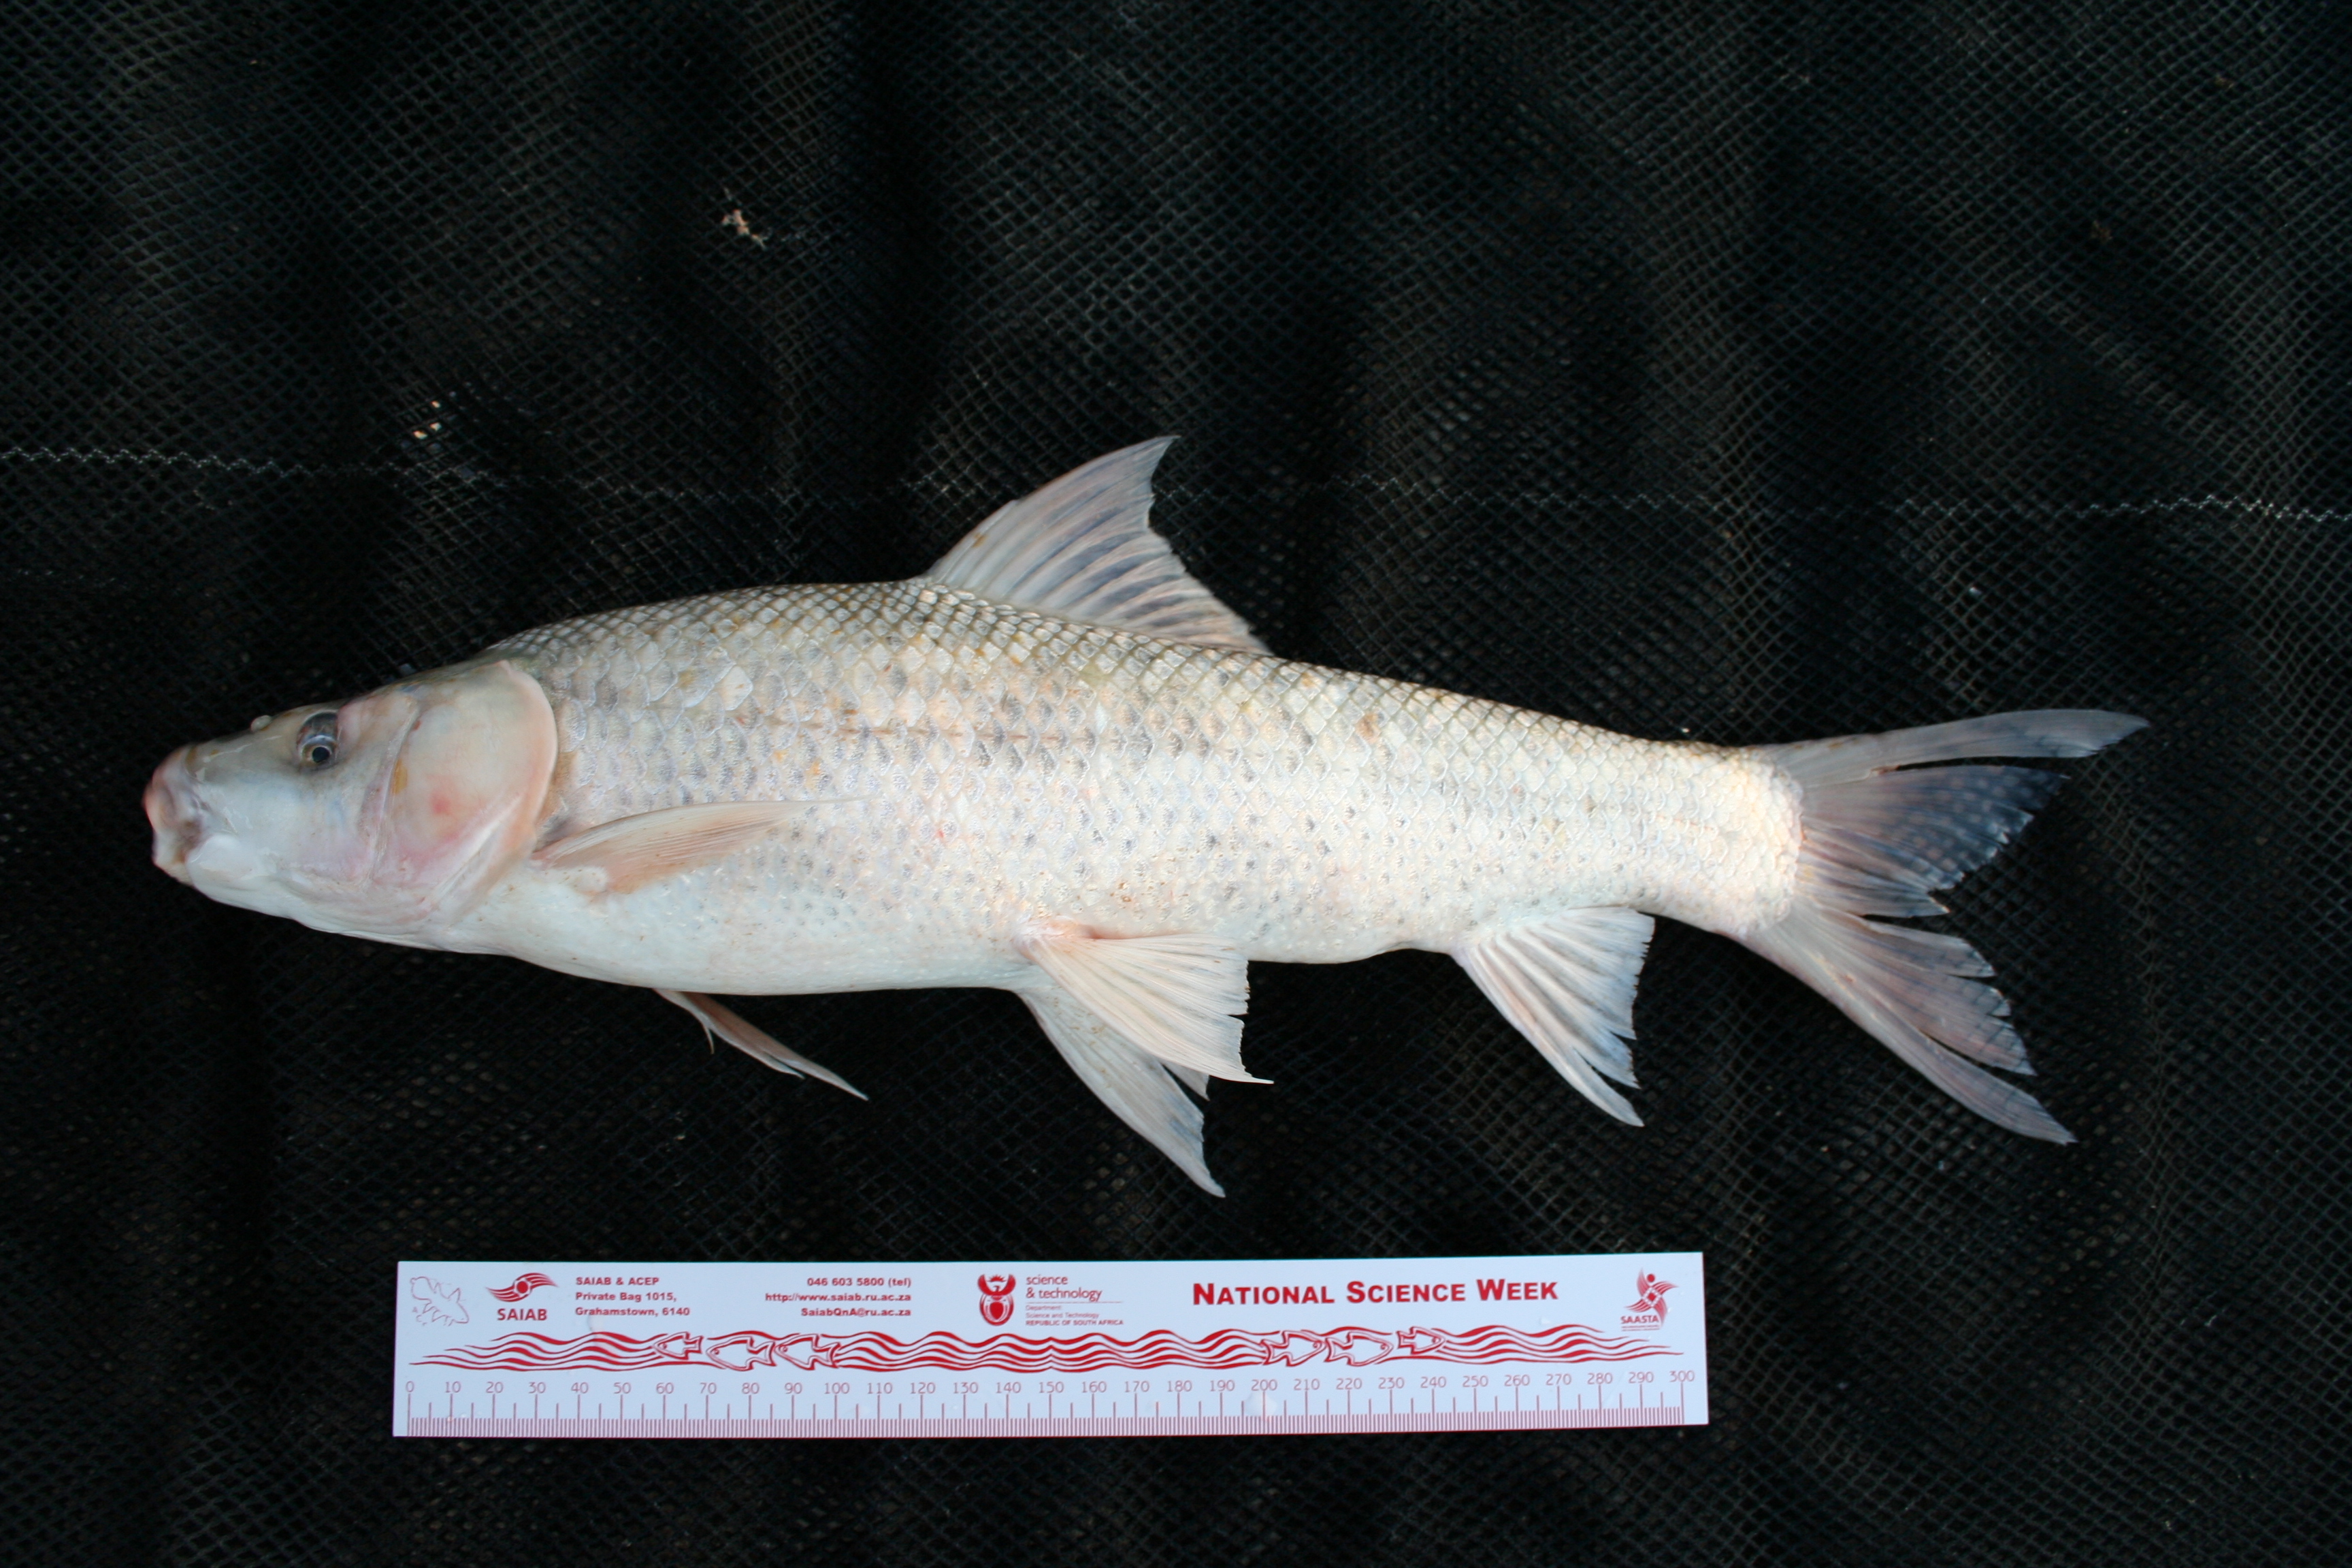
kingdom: Animalia
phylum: Chordata
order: Cypriniformes
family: Cyprinidae
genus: Labeo
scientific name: Labeo
